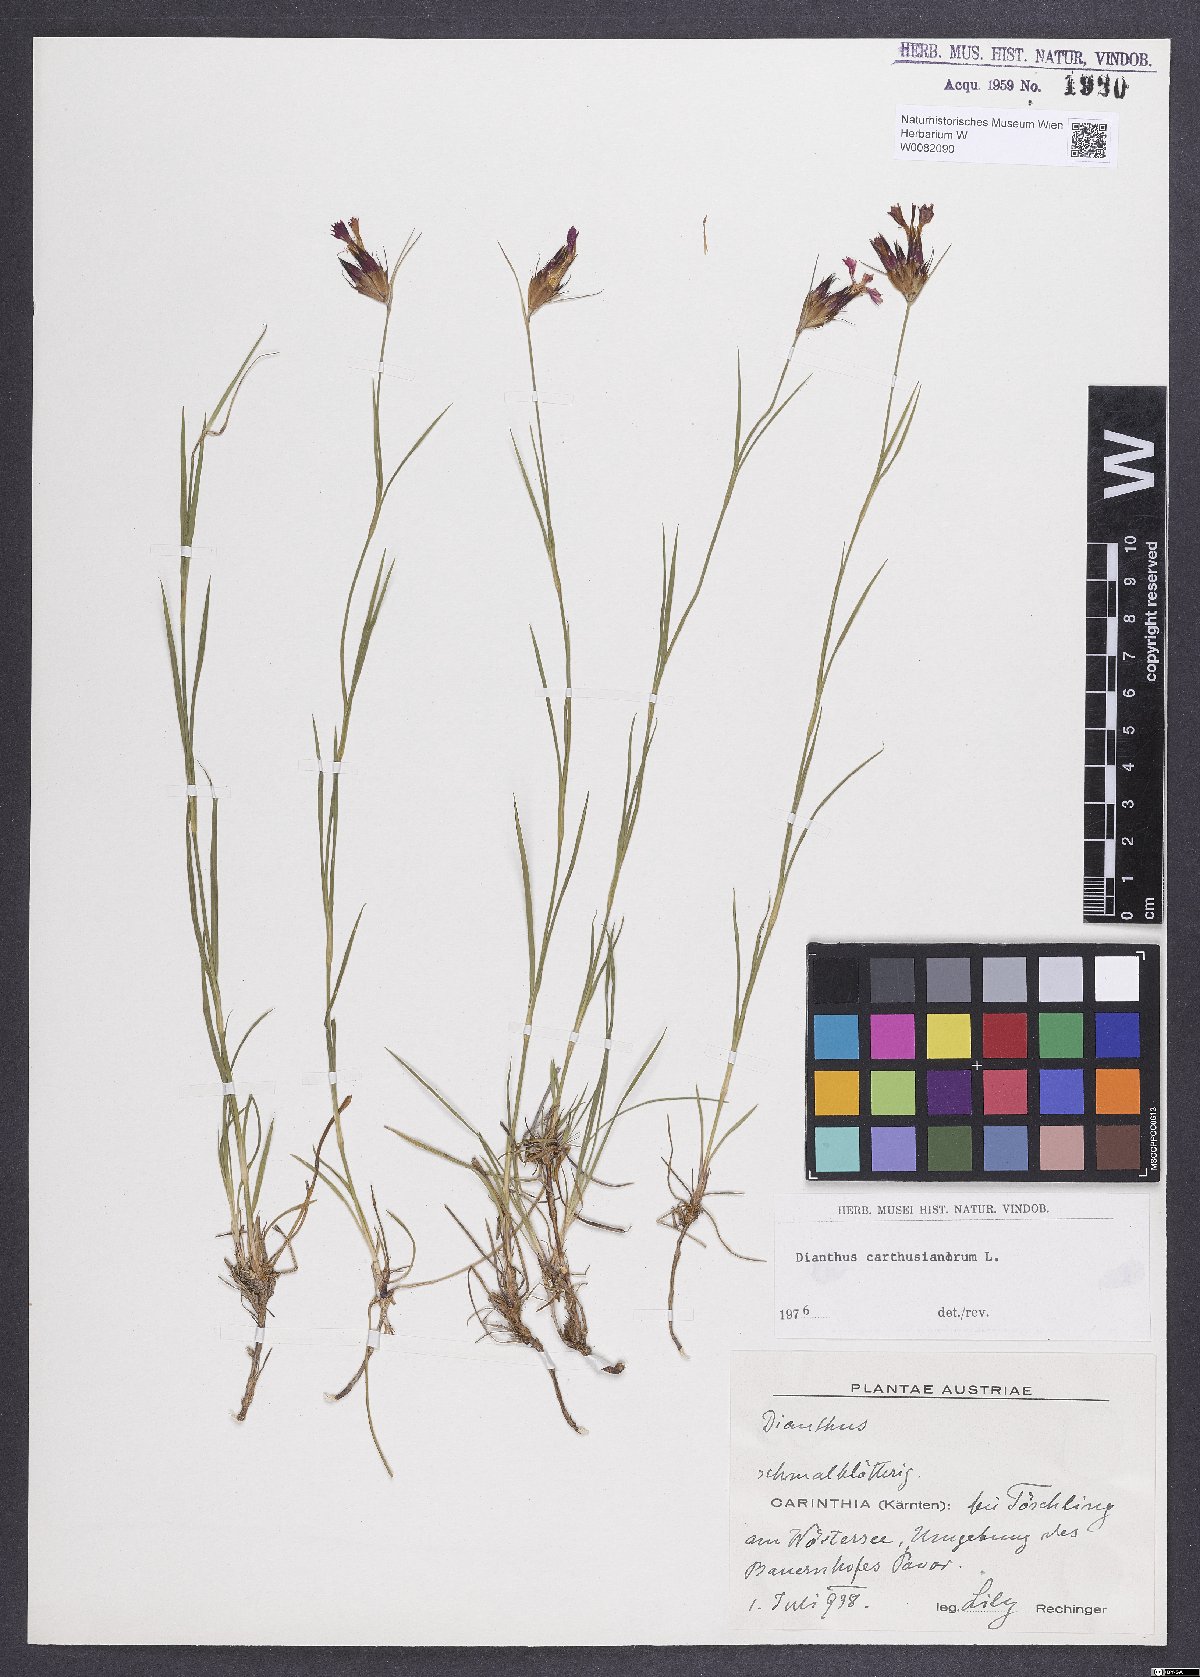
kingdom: Plantae
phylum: Tracheophyta
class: Magnoliopsida
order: Caryophyllales
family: Caryophyllaceae
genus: Dianthus
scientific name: Dianthus carthusianorum
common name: Carthusian pink
